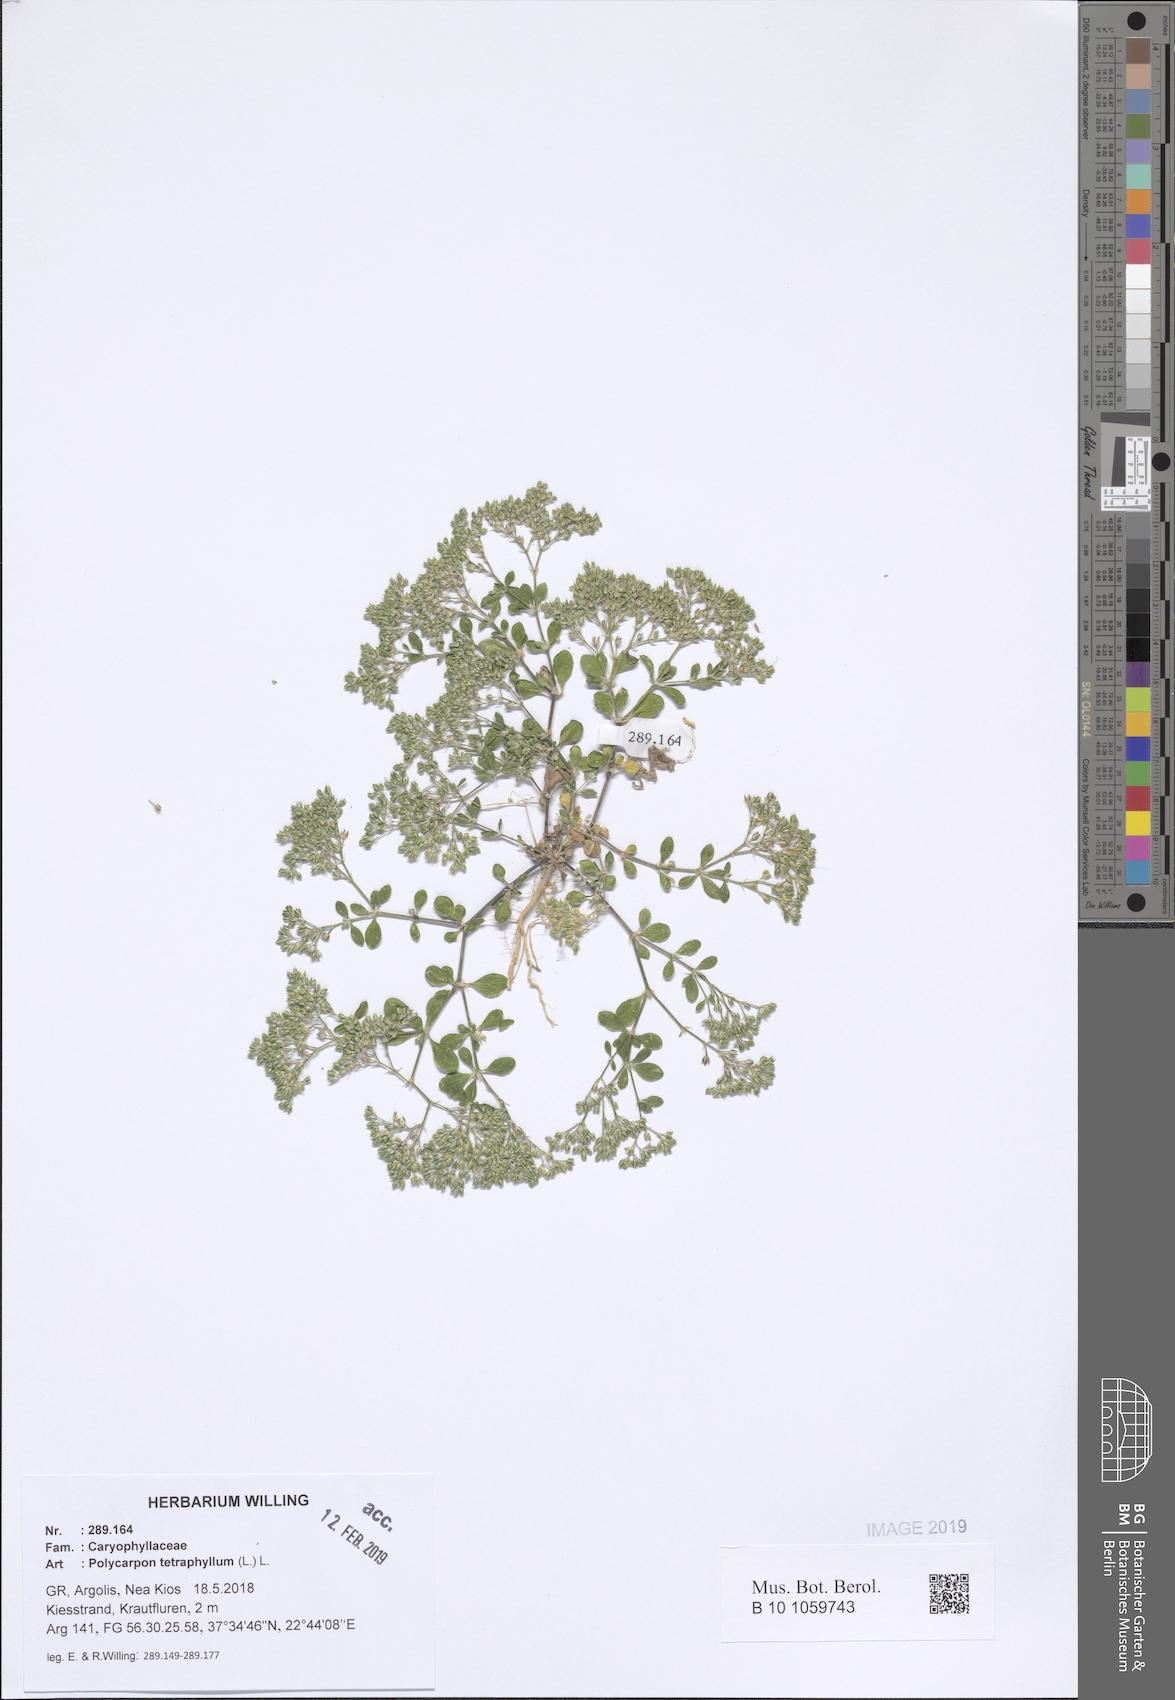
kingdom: Plantae
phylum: Tracheophyta
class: Magnoliopsida
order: Caryophyllales
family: Caryophyllaceae
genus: Polycarpon
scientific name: Polycarpon tetraphyllum
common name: Four-leaved all-seed
